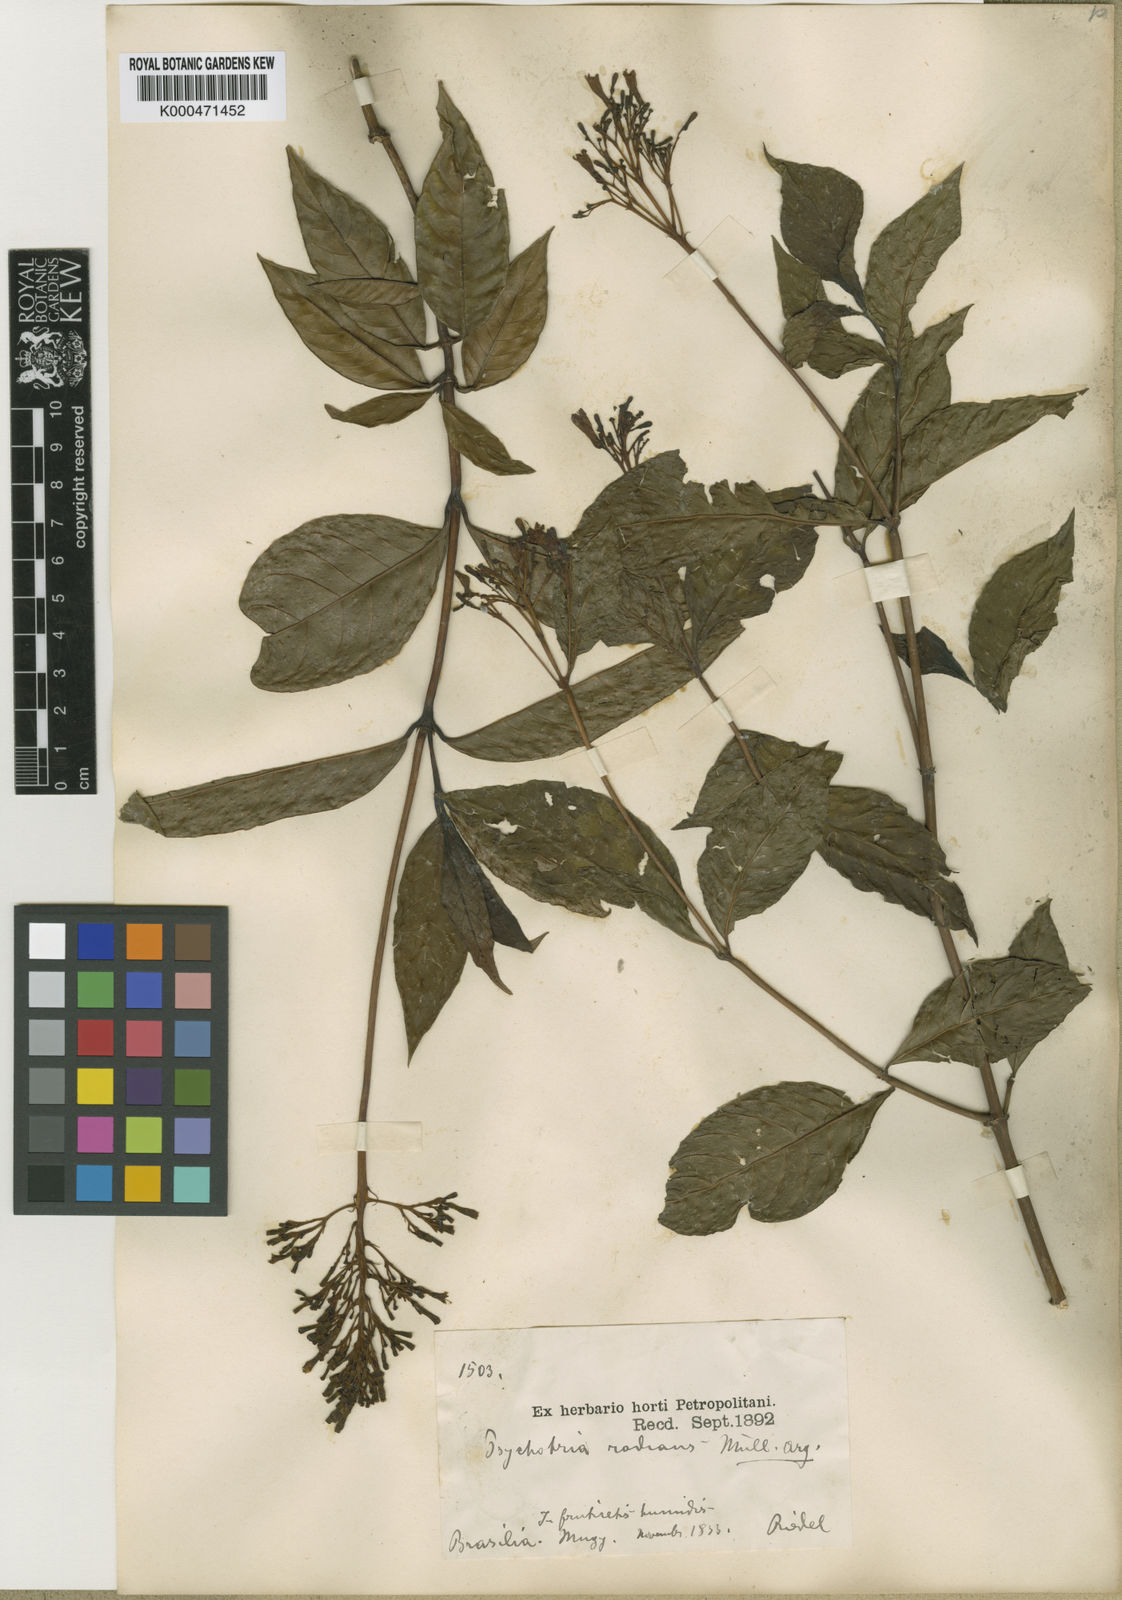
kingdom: Plantae
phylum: Tracheophyta
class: Magnoliopsida
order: Gentianales
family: Rubiaceae
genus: Palicourea
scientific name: Palicourea
